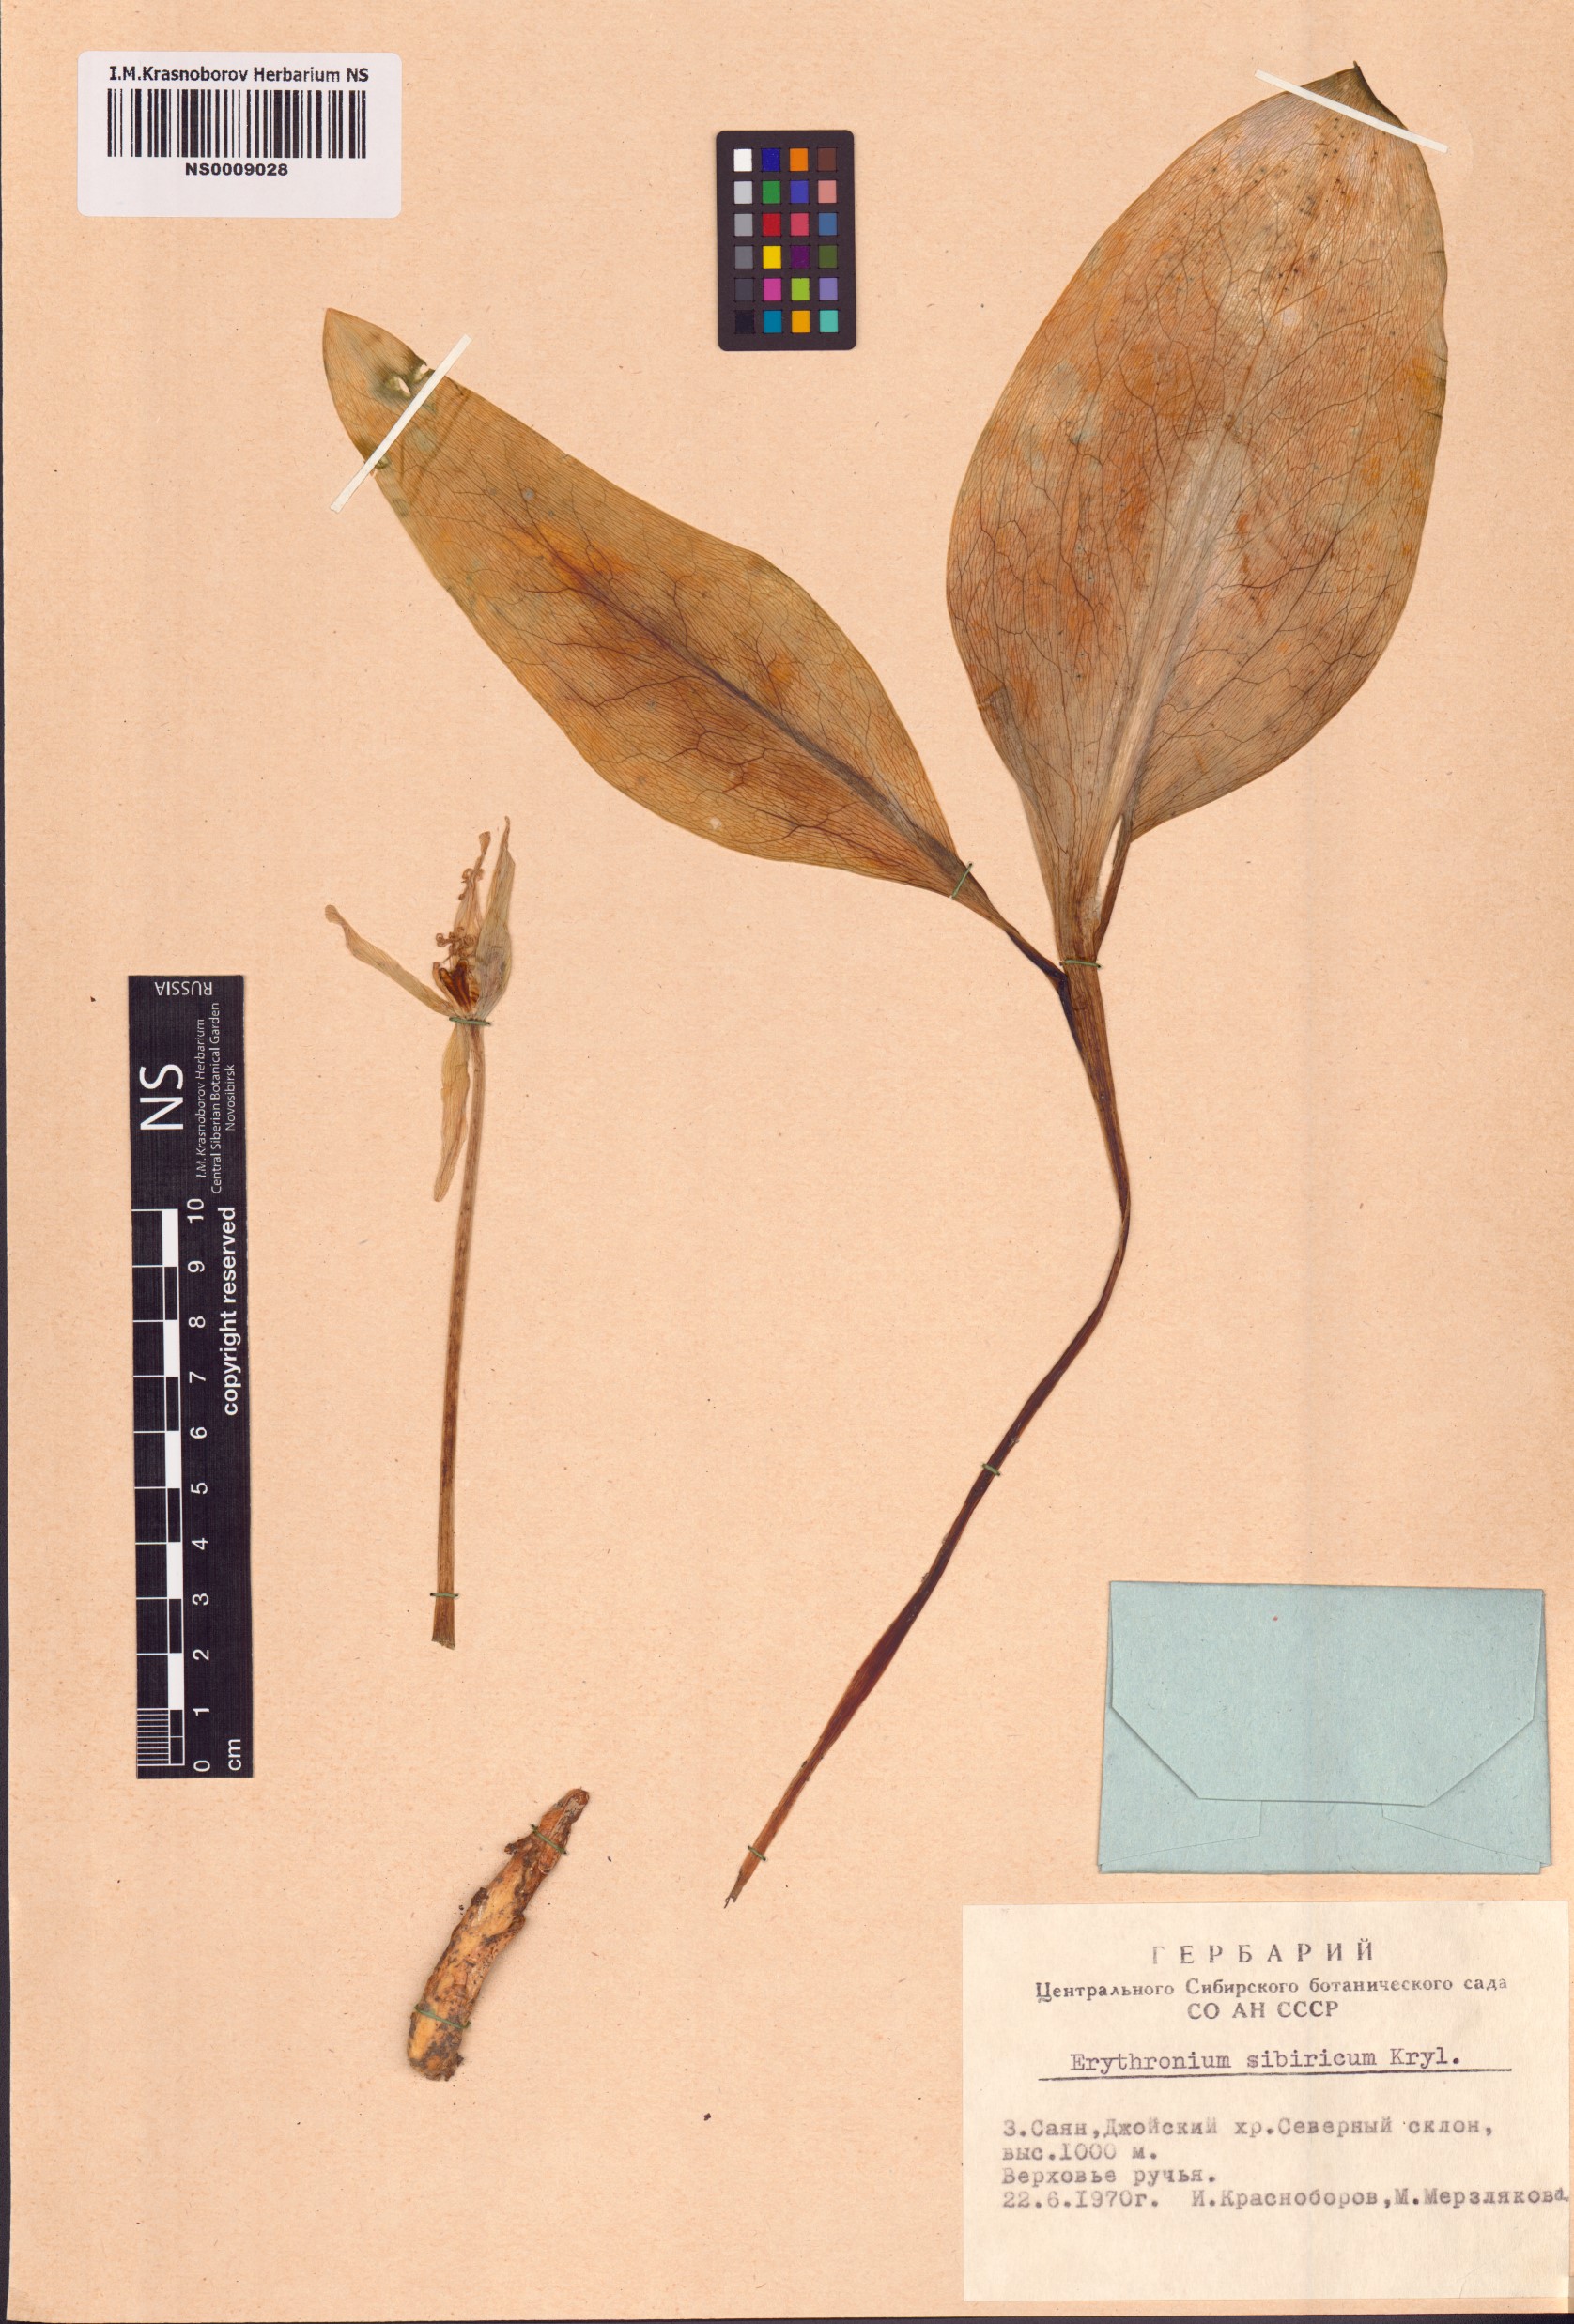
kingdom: Plantae
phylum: Tracheophyta
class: Liliopsida
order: Liliales
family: Liliaceae
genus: Erythronium
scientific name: Erythronium sibiricum
